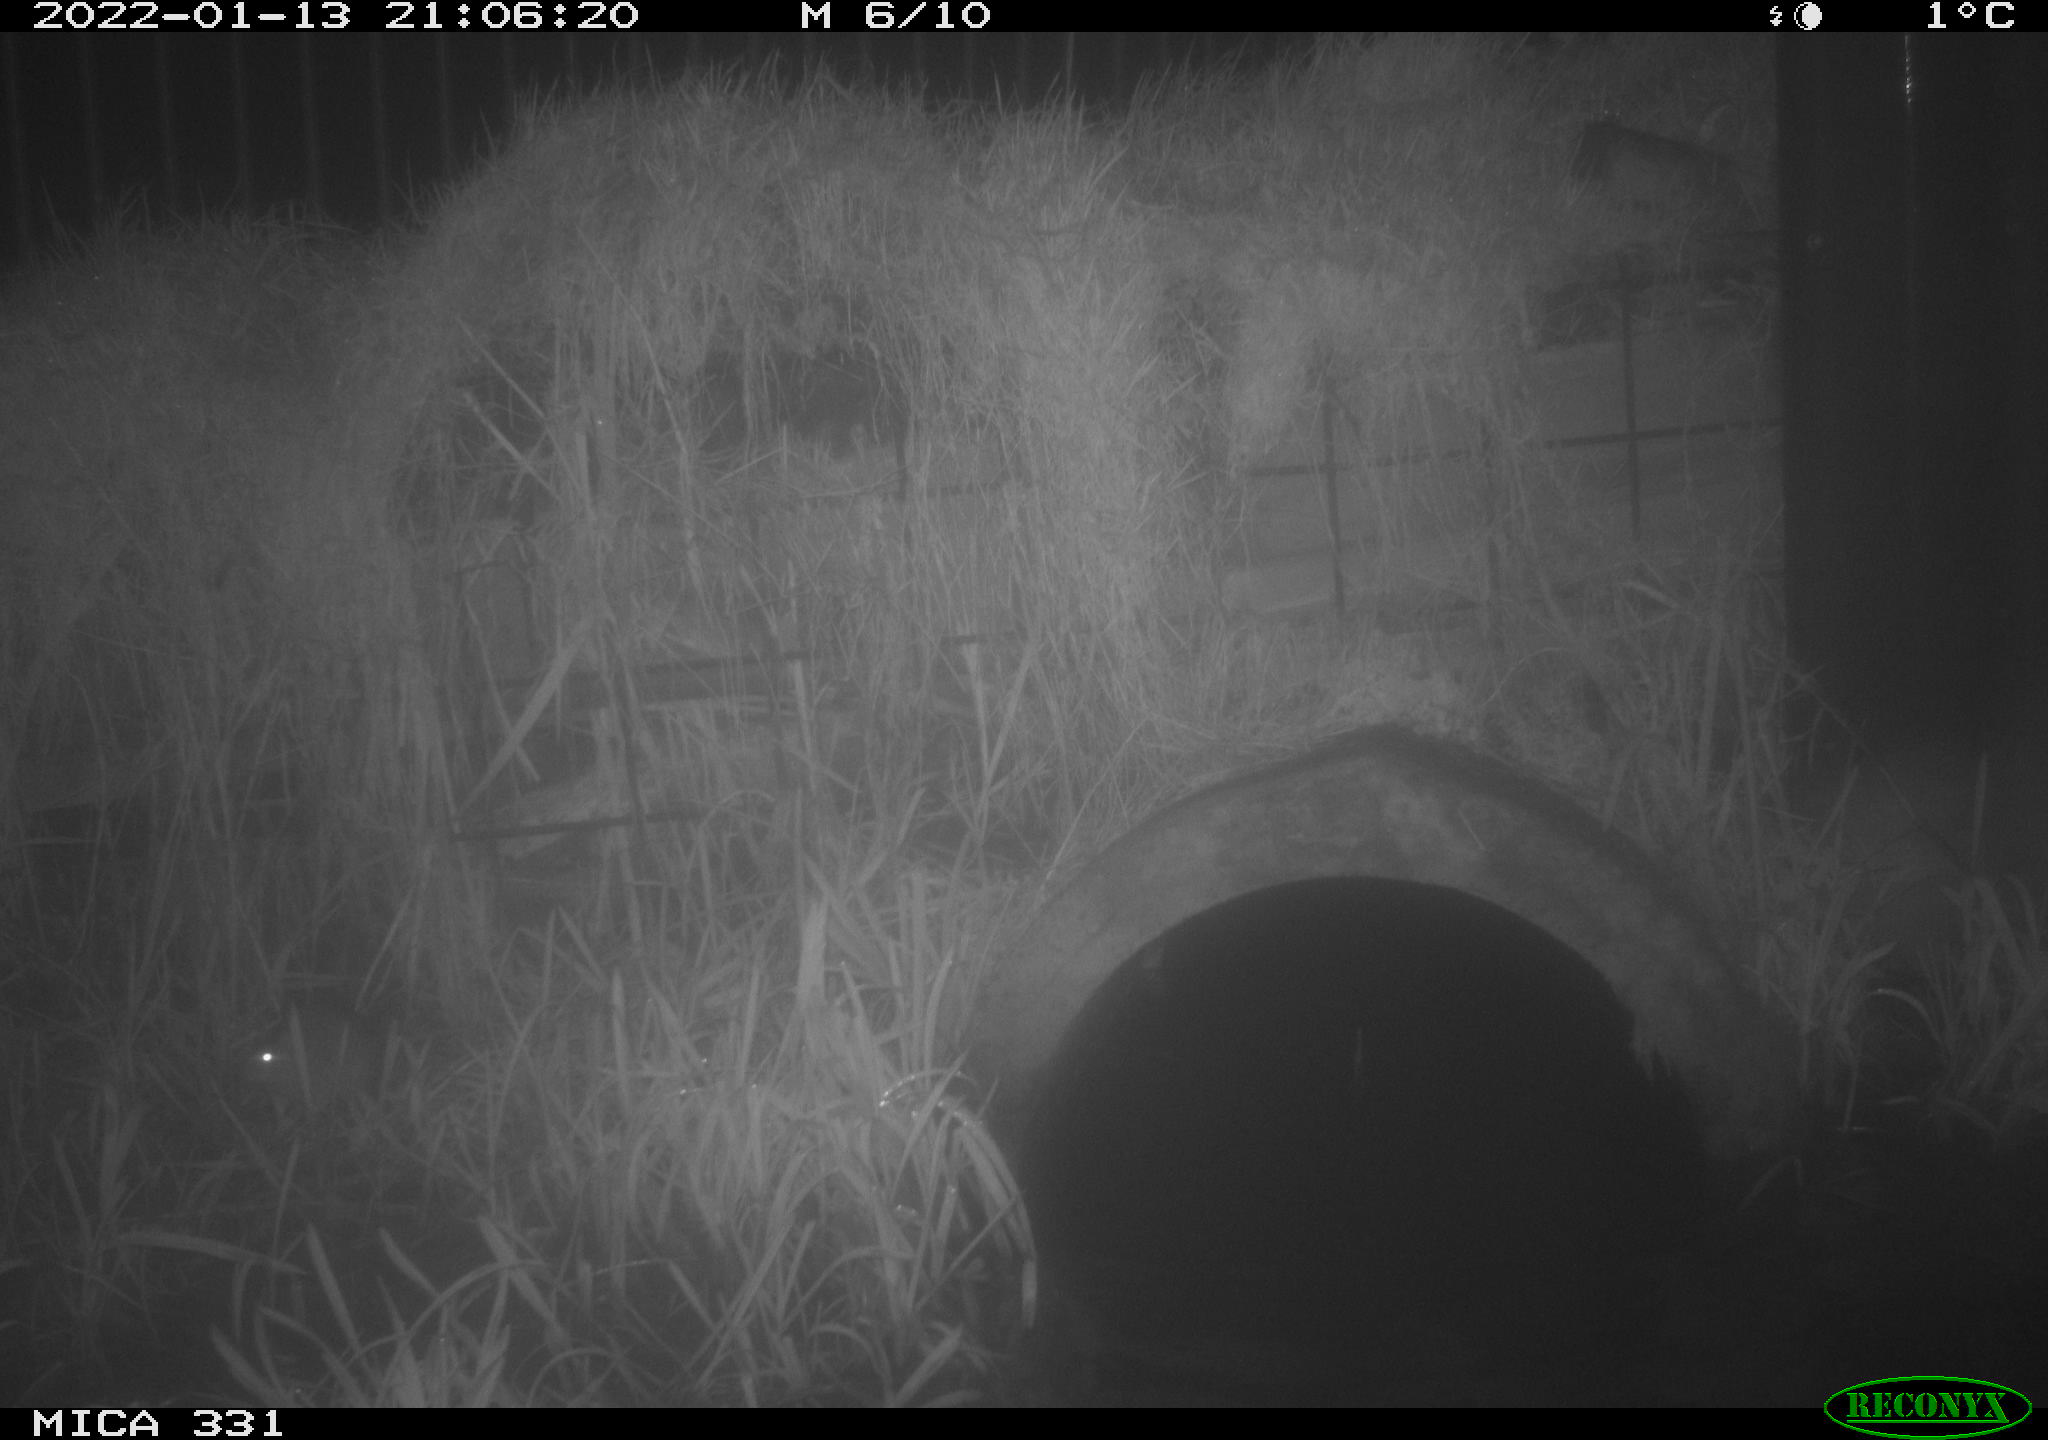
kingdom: Animalia
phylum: Chordata
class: Mammalia
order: Rodentia
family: Muridae
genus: Rattus
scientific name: Rattus norvegicus
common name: Brown rat
